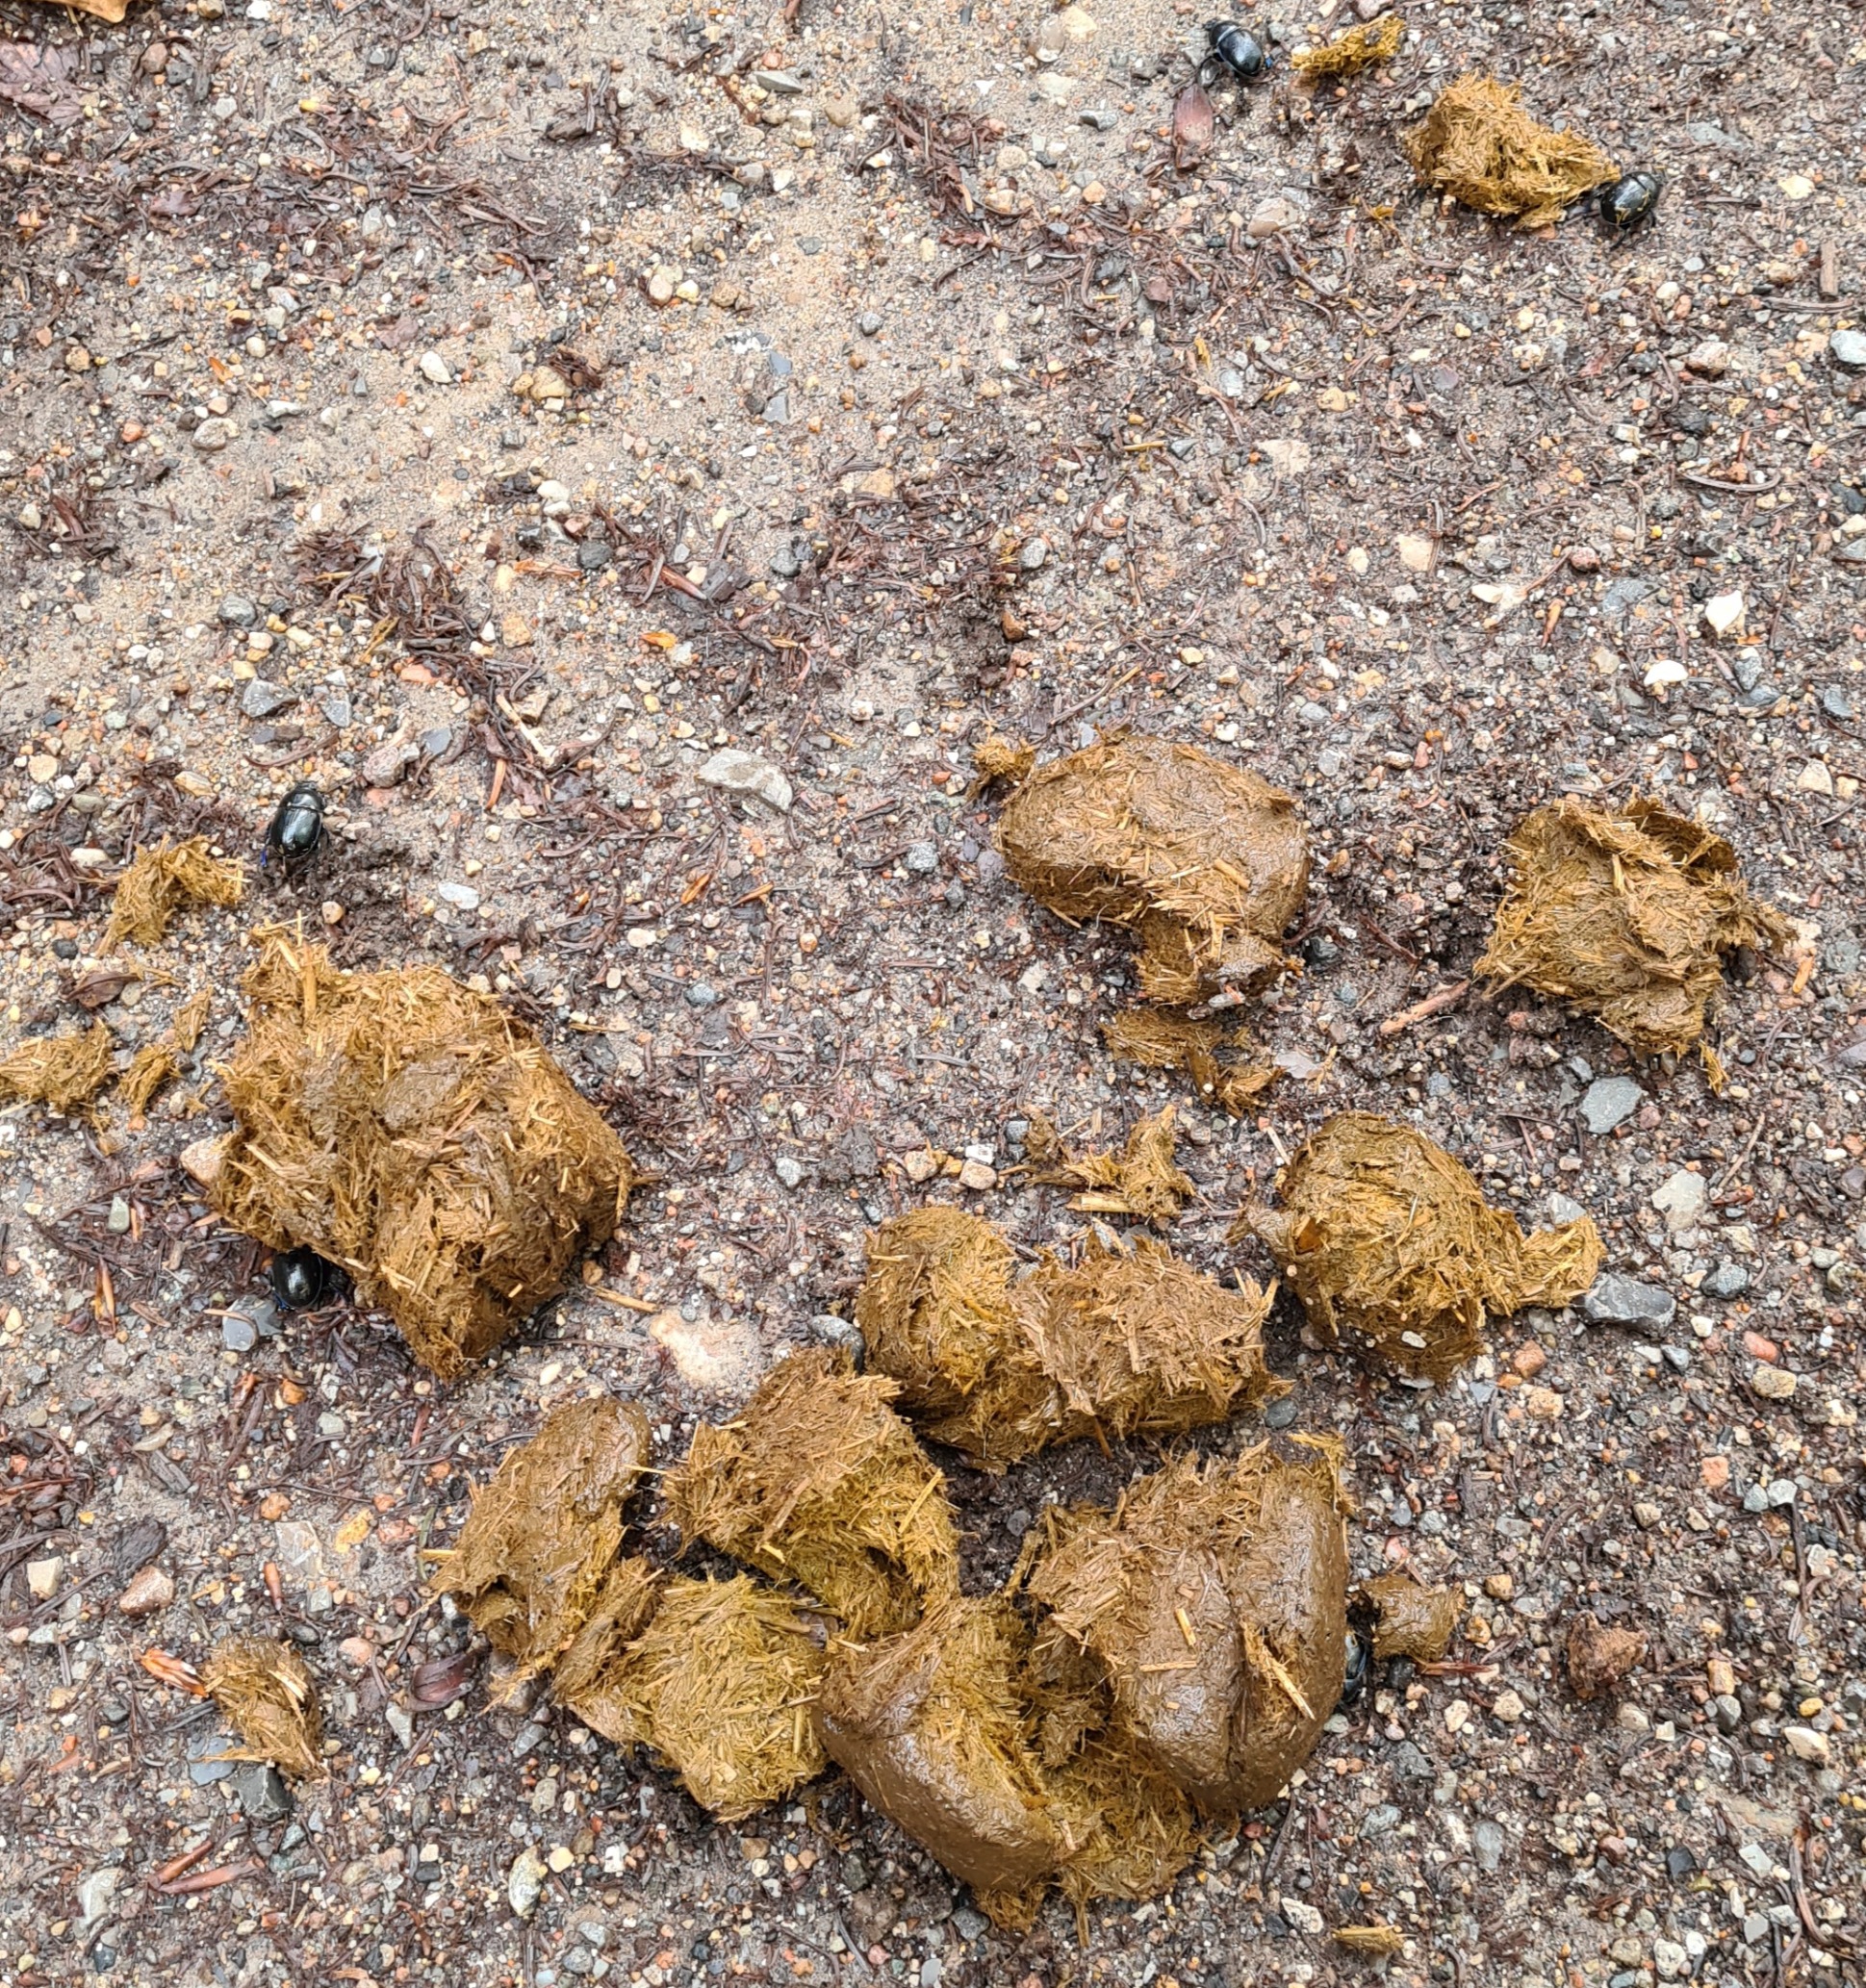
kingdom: Animalia
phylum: Arthropoda
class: Insecta
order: Coleoptera
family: Geotrupidae
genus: Anoplotrupes
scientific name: Anoplotrupes stercorosus
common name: Skovskarnbasse
